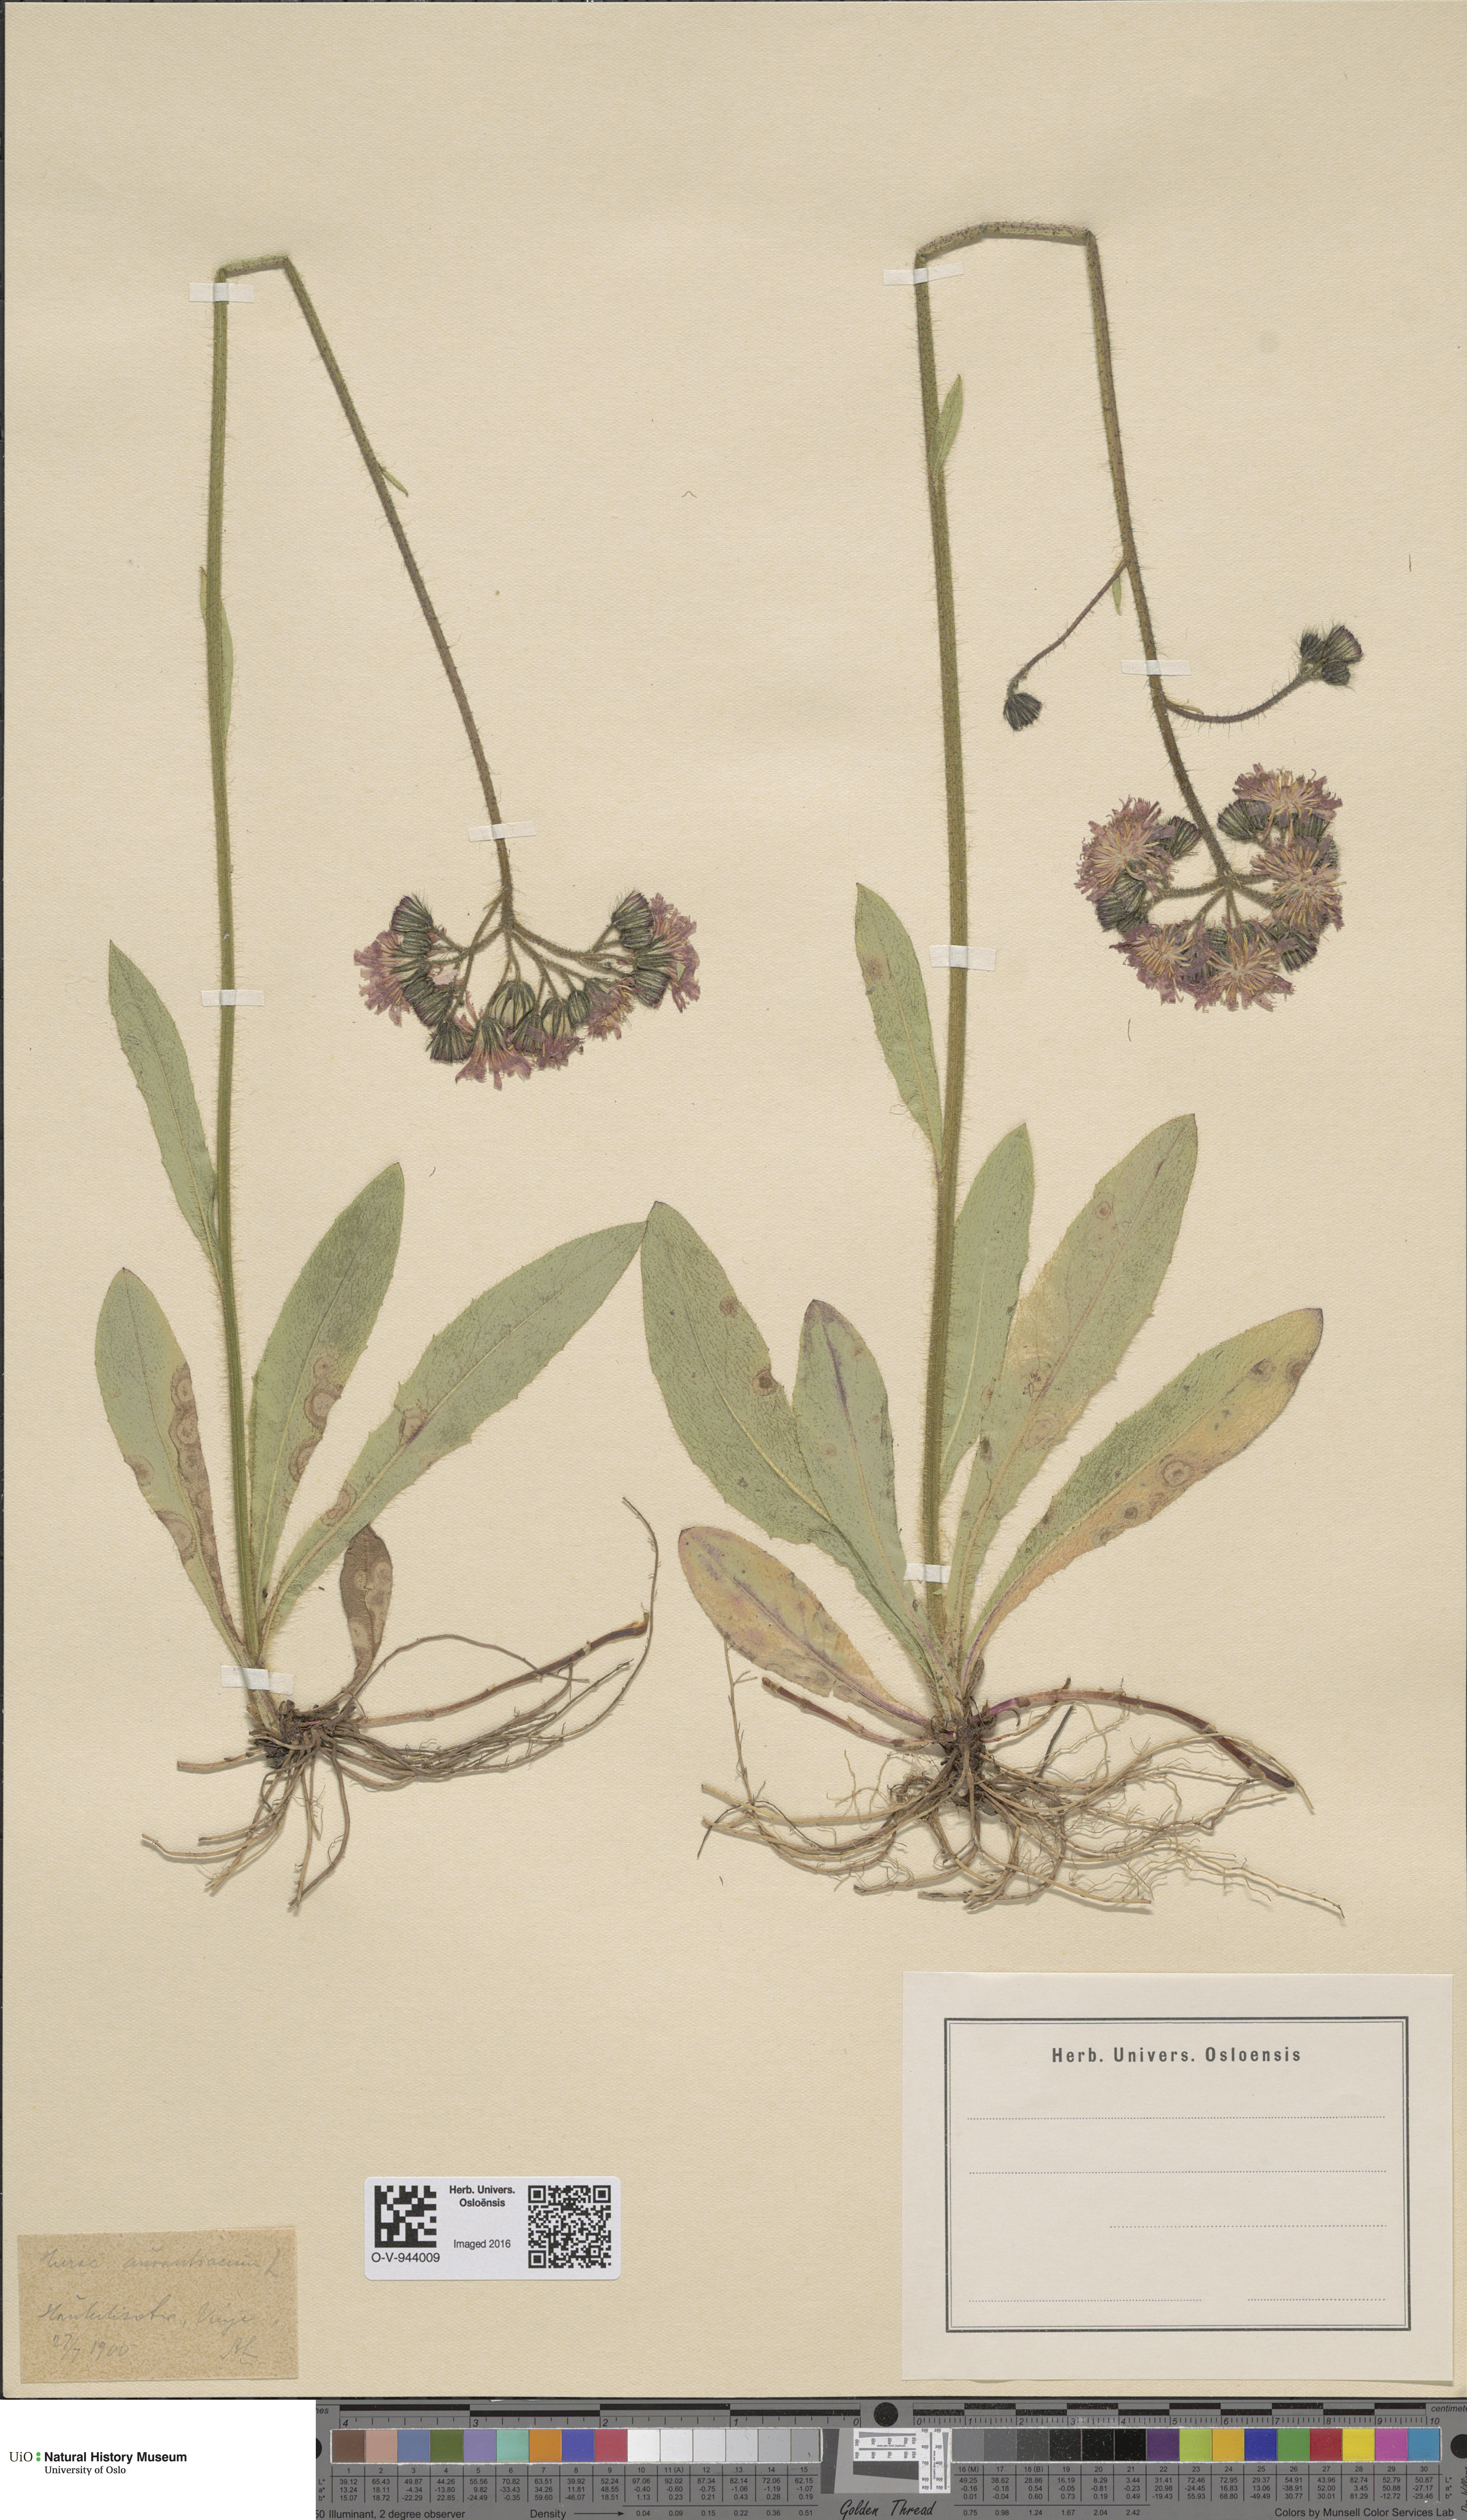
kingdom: Plantae
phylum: Tracheophyta
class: Magnoliopsida
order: Asterales
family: Asteraceae
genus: Pilosella
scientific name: Pilosella aurantiaca
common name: Fox-and-cubs
